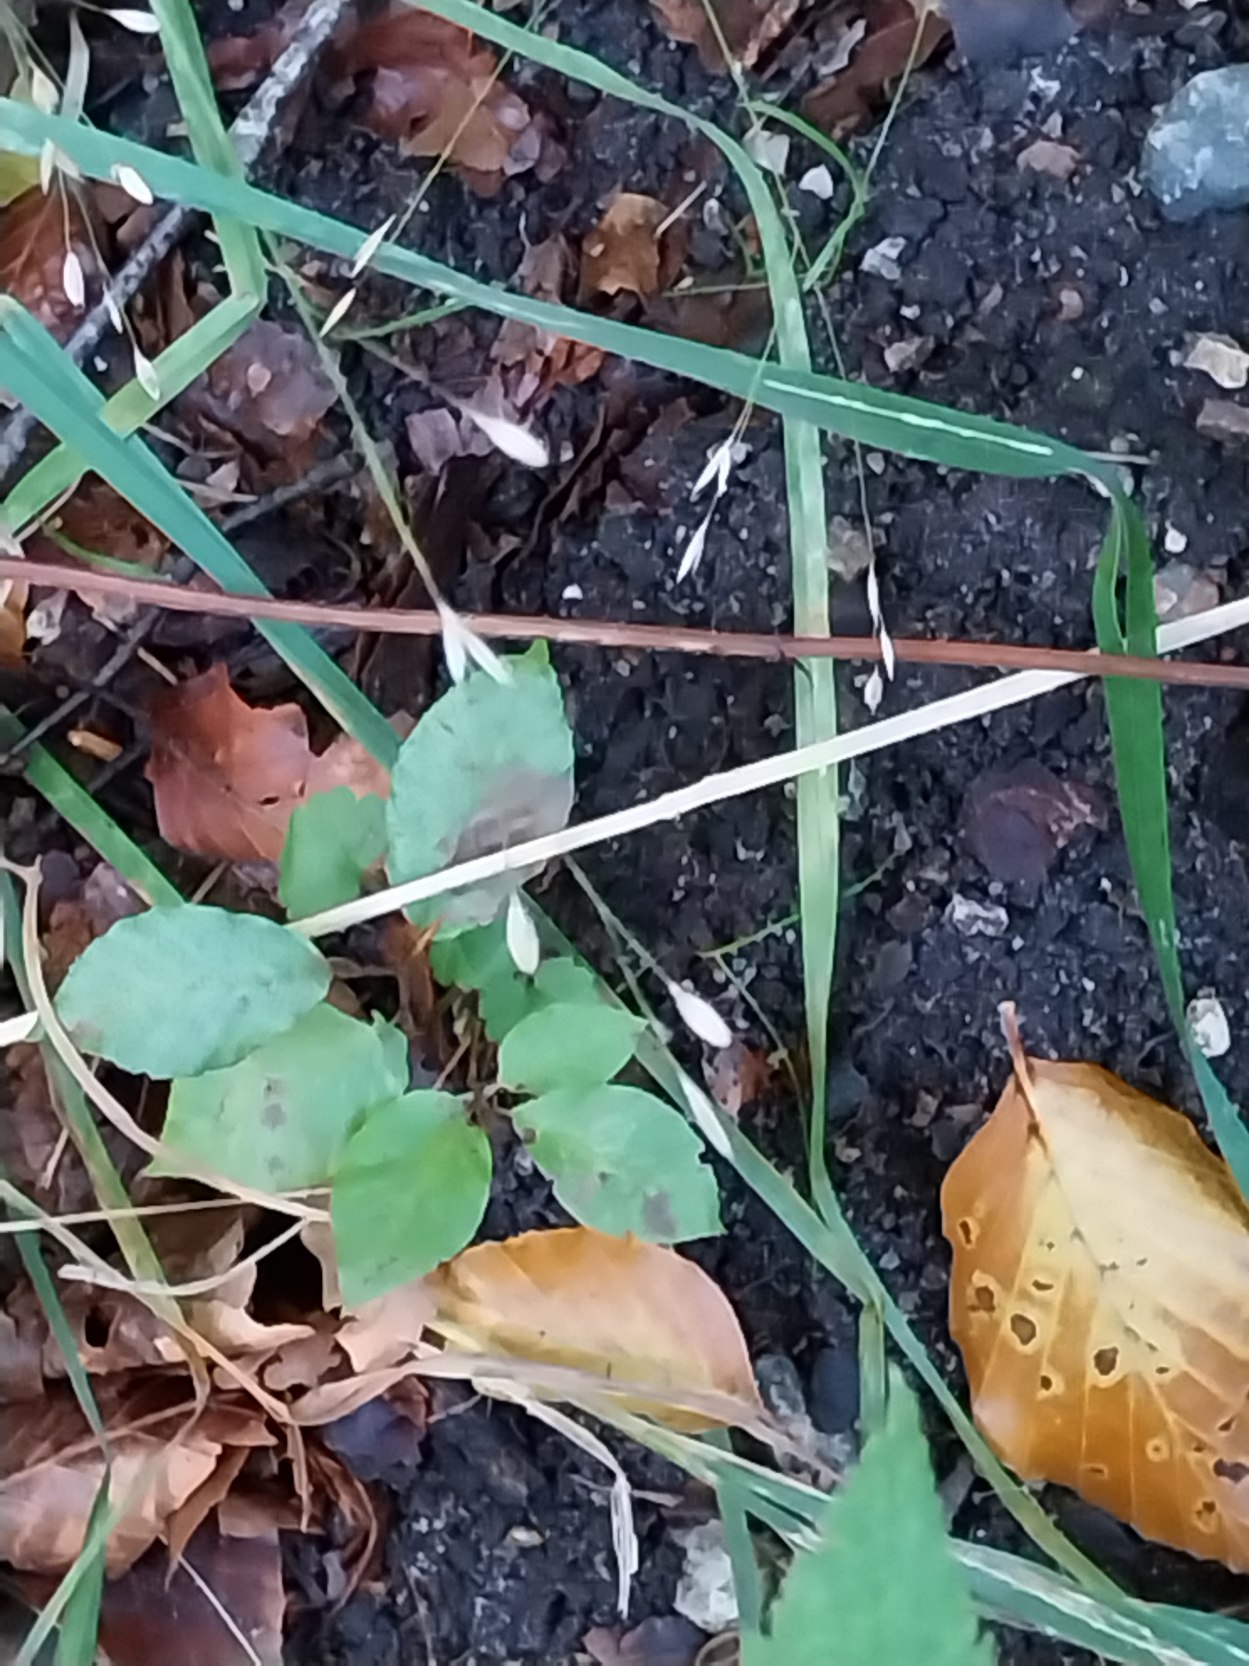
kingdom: Plantae
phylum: Tracheophyta
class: Liliopsida
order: Poales
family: Poaceae
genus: Melica
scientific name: Melica uniflora
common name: Enblomstret flitteraks
